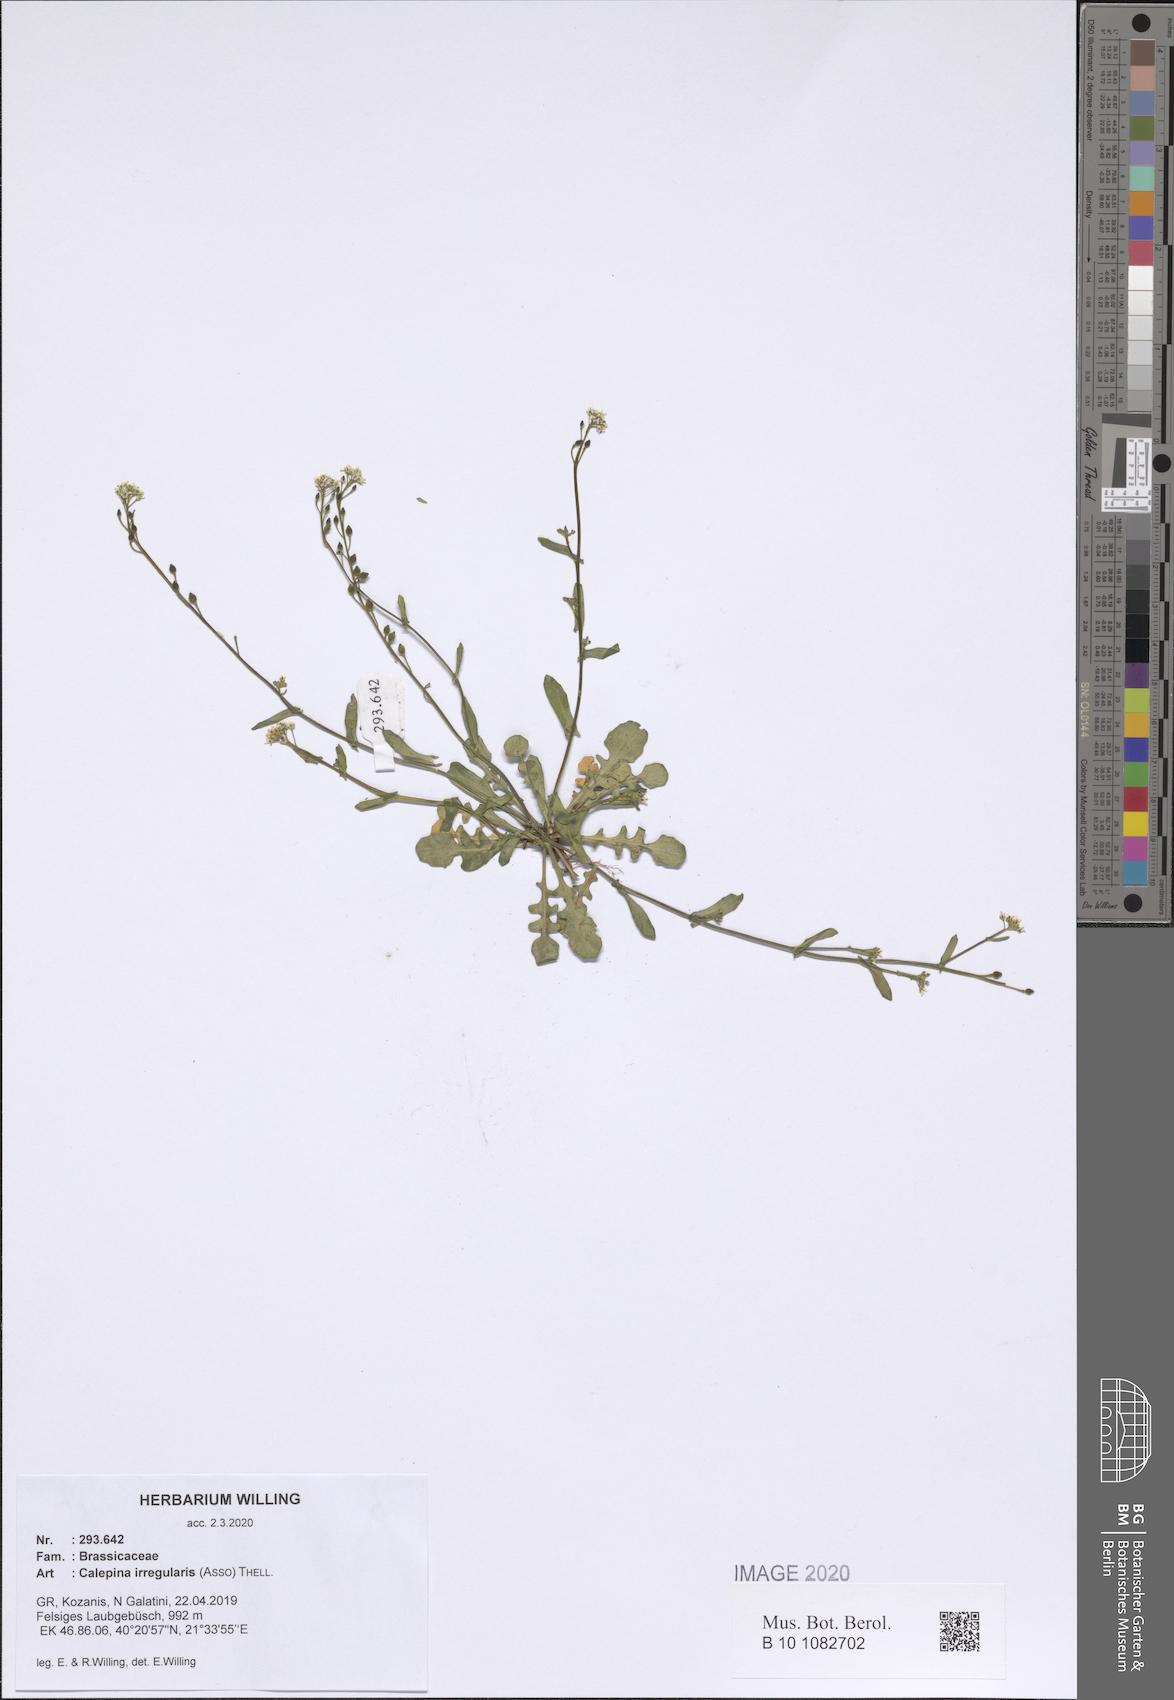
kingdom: Plantae
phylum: Tracheophyta
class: Magnoliopsida
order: Brassicales
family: Brassicaceae
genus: Calepina
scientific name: Calepina irregularis
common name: White ballmustard
